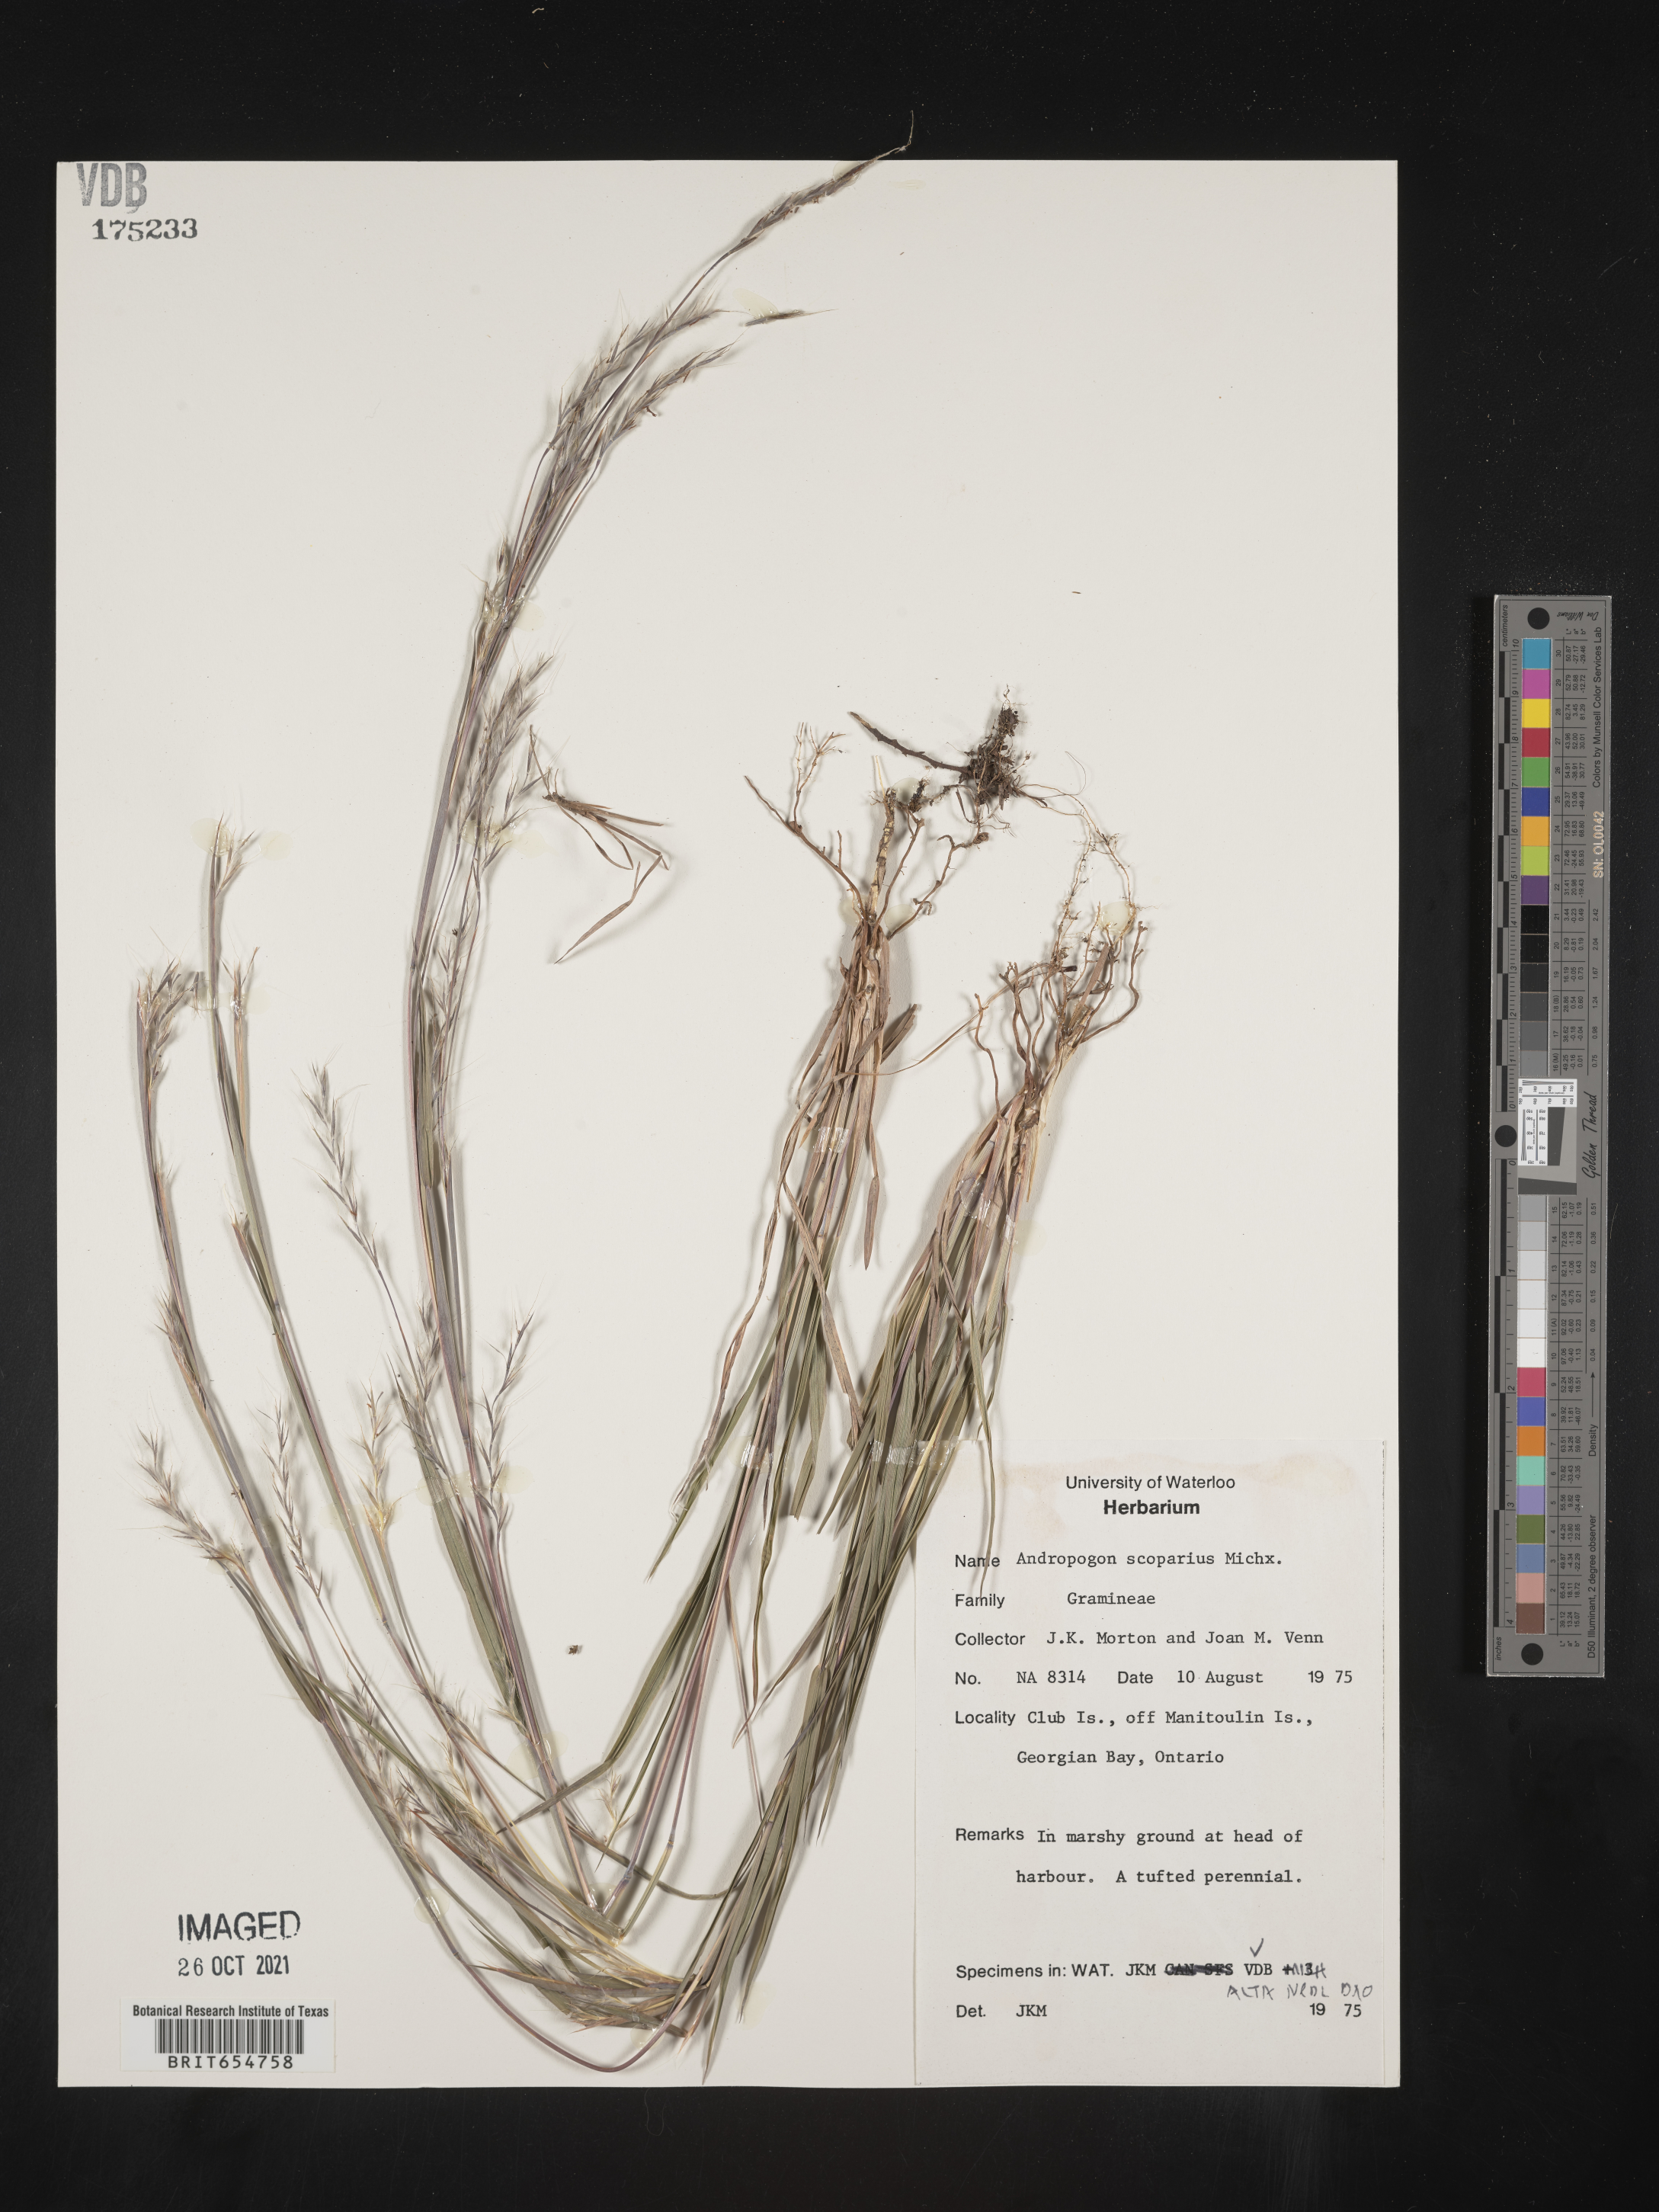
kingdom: Plantae
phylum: Tracheophyta
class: Liliopsida
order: Poales
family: Poaceae
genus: Andropogon
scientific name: Andropogon
